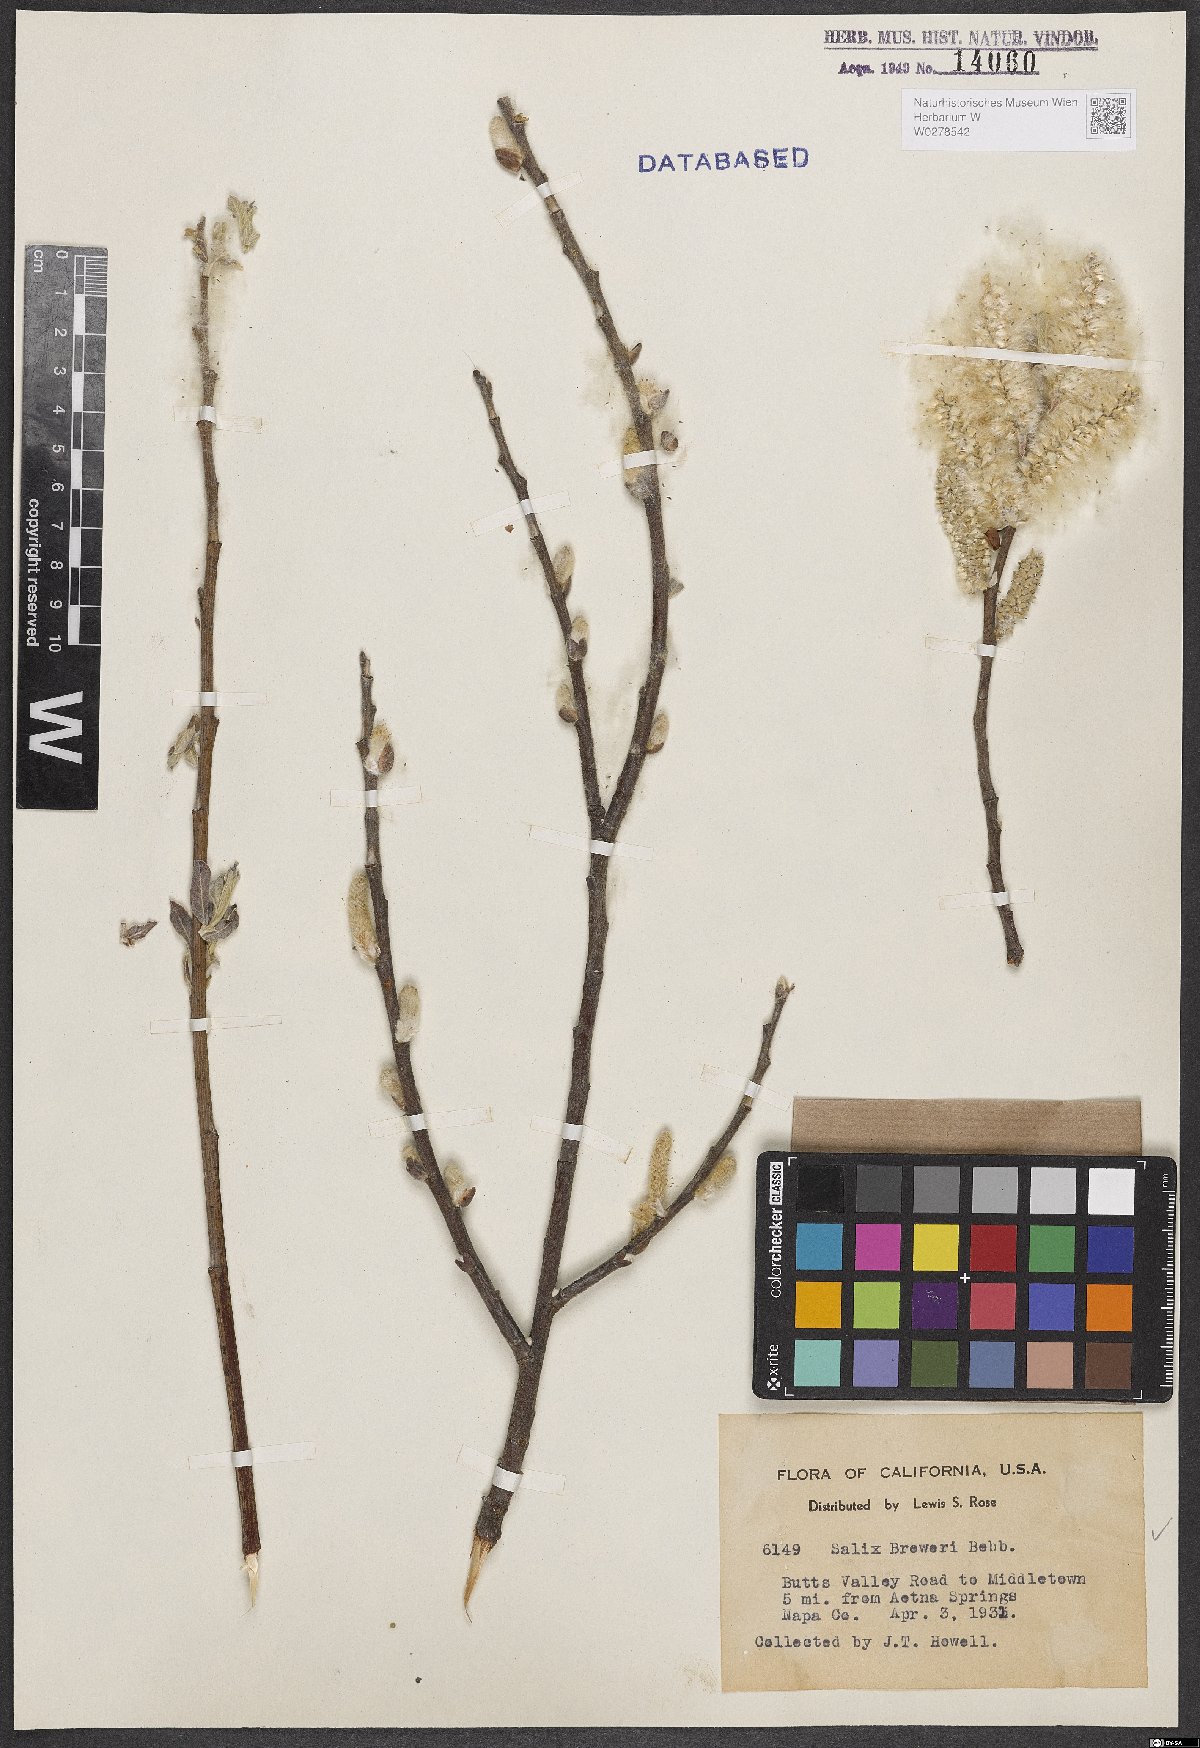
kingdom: Plantae
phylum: Tracheophyta
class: Magnoliopsida
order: Malpighiales
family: Salicaceae
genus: Salix
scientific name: Salix breweri
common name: Brewer’s willow
